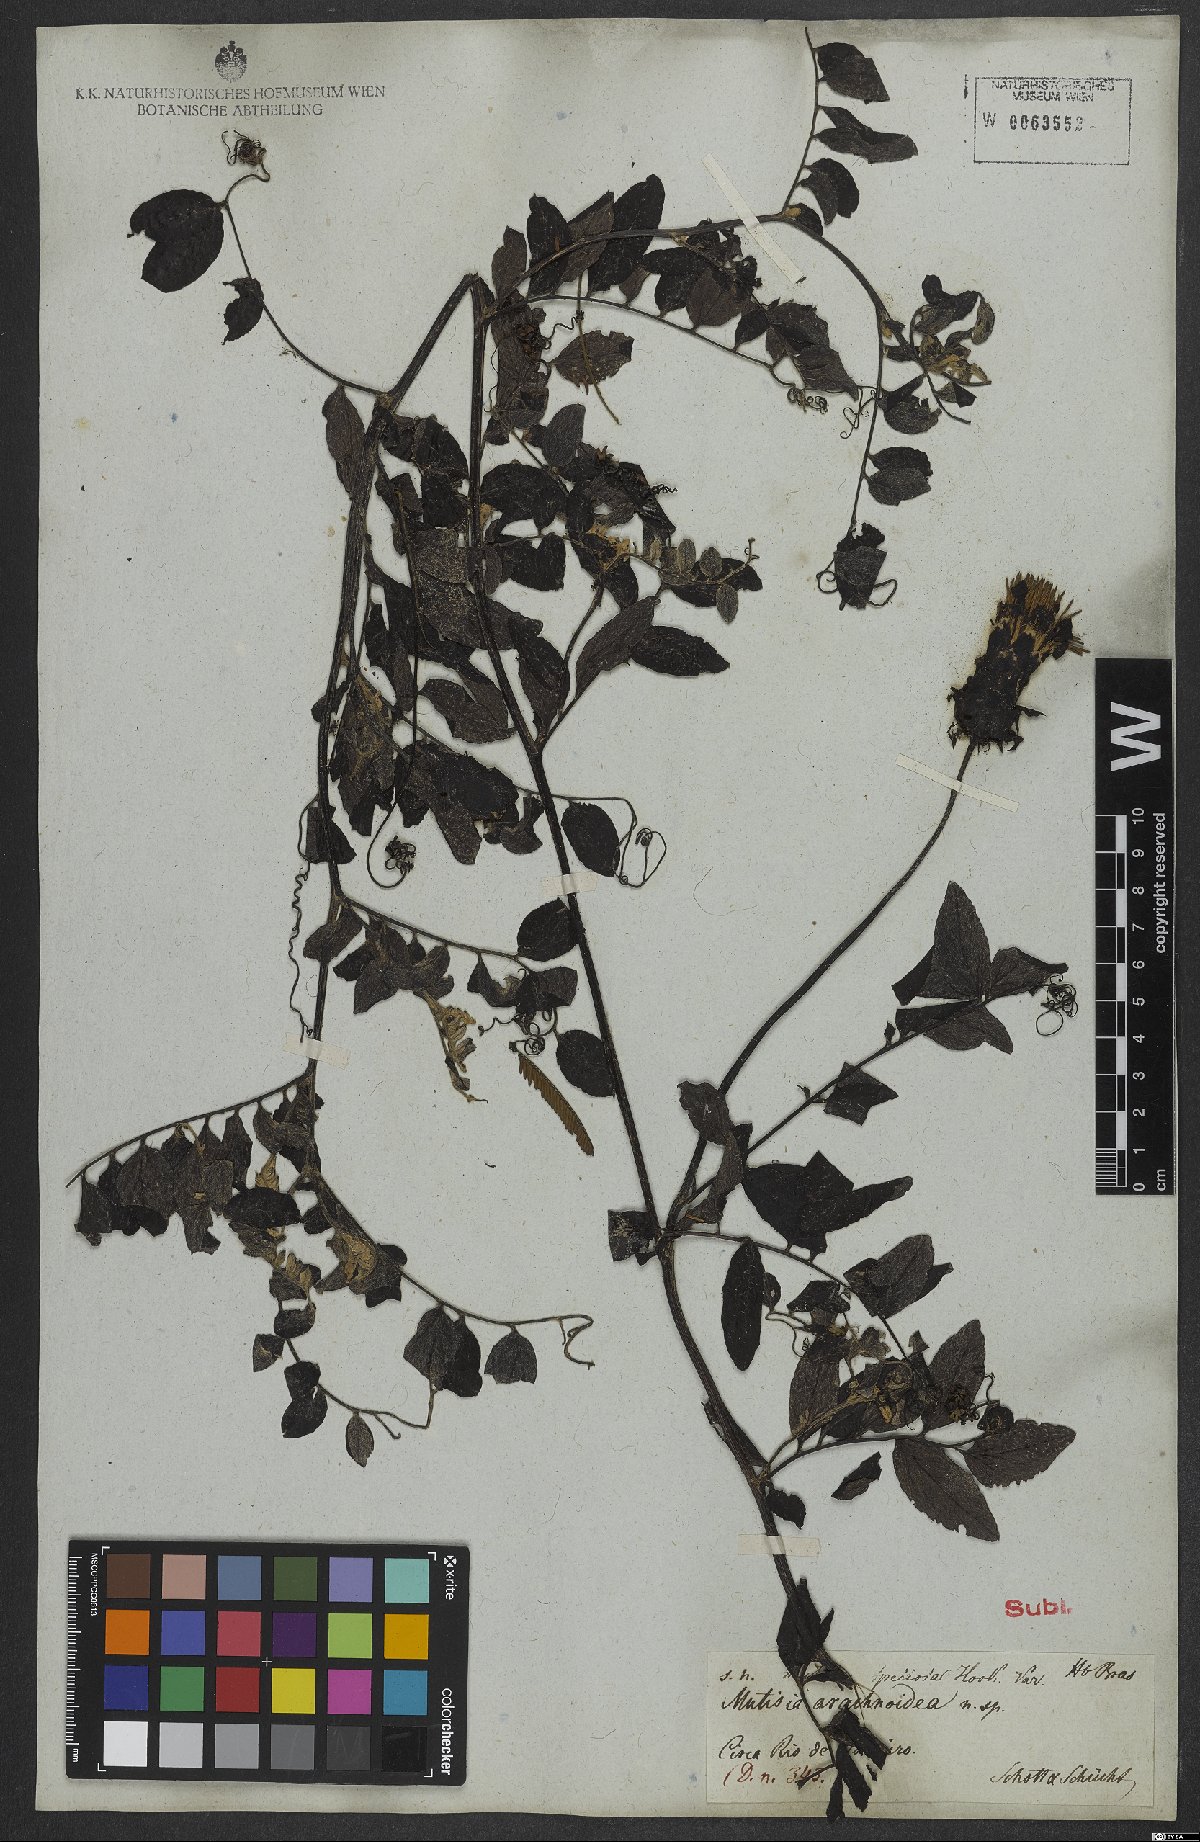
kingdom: Plantae
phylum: Tracheophyta
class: Magnoliopsida
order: Asterales
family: Asteraceae
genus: Mutisia
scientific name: Mutisia speciosa
